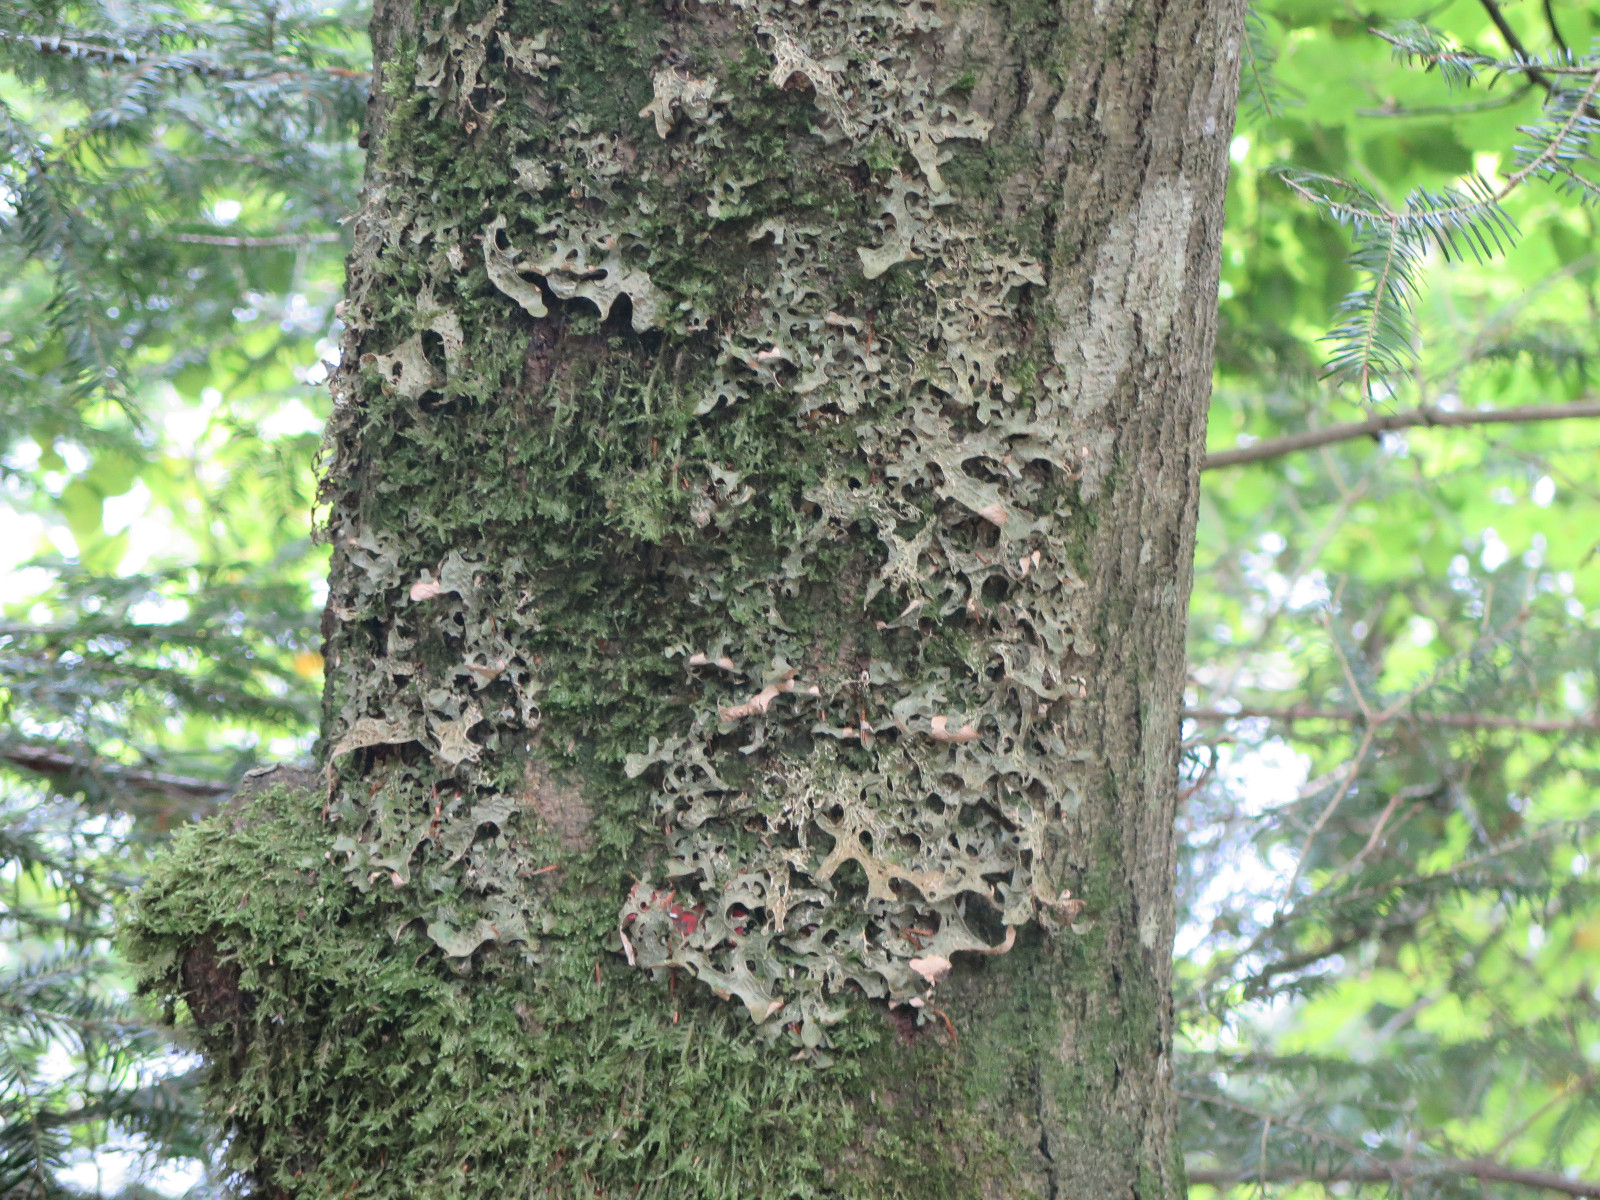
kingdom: Fungi
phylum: Ascomycota
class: Lecanoromycetes
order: Peltigerales
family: Lobariaceae
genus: Lobaria
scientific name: Lobaria pulmonaria
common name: almindelig lungelav
